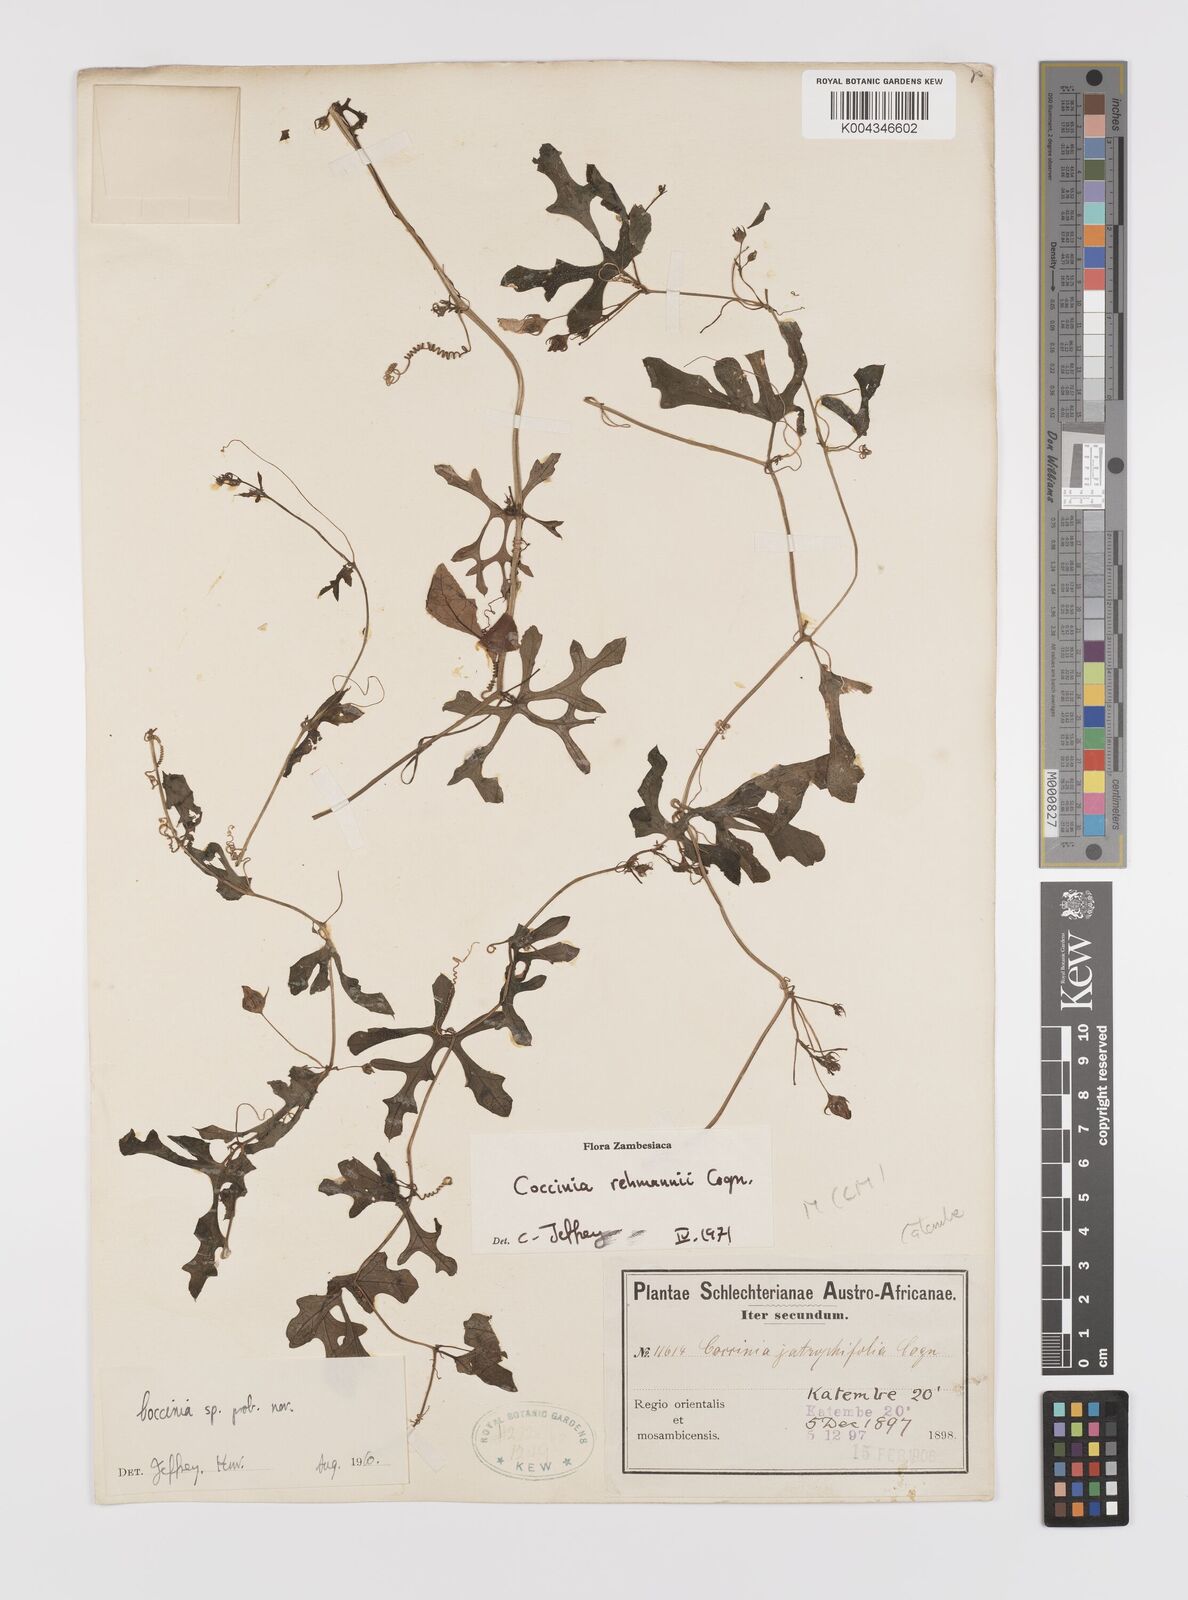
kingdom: Plantae
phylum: Tracheophyta
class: Magnoliopsida
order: Cucurbitales
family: Cucurbitaceae
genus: Coccinia
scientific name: Coccinia rehmannii
